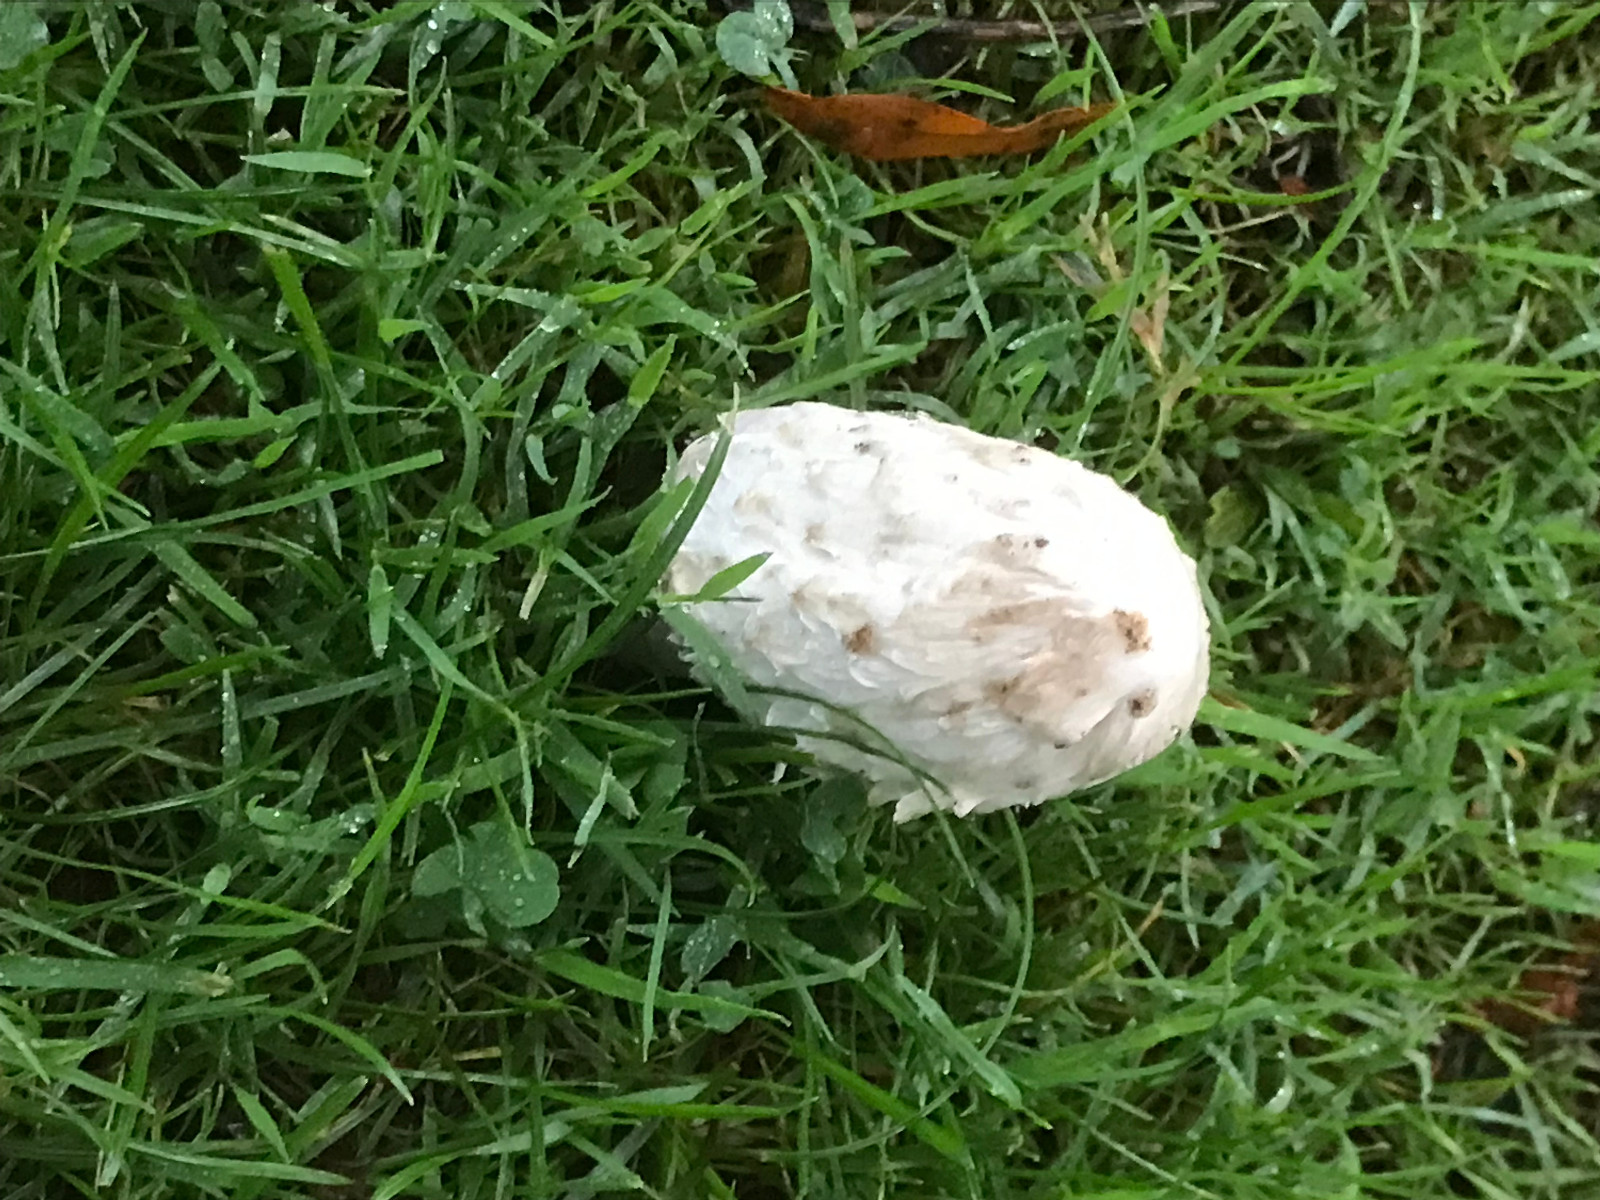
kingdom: Fungi
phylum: Basidiomycota
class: Agaricomycetes
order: Agaricales
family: Agaricaceae
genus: Coprinus
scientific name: Coprinus comatus
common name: stor parykhat
